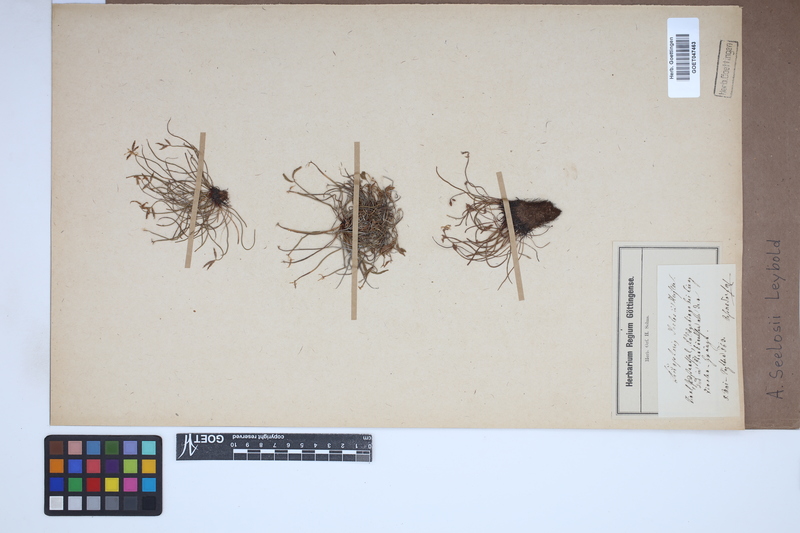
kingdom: Plantae
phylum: Tracheophyta
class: Polypodiopsida
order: Polypodiales
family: Aspleniaceae
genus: Asplenium
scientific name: Asplenium seelosii
